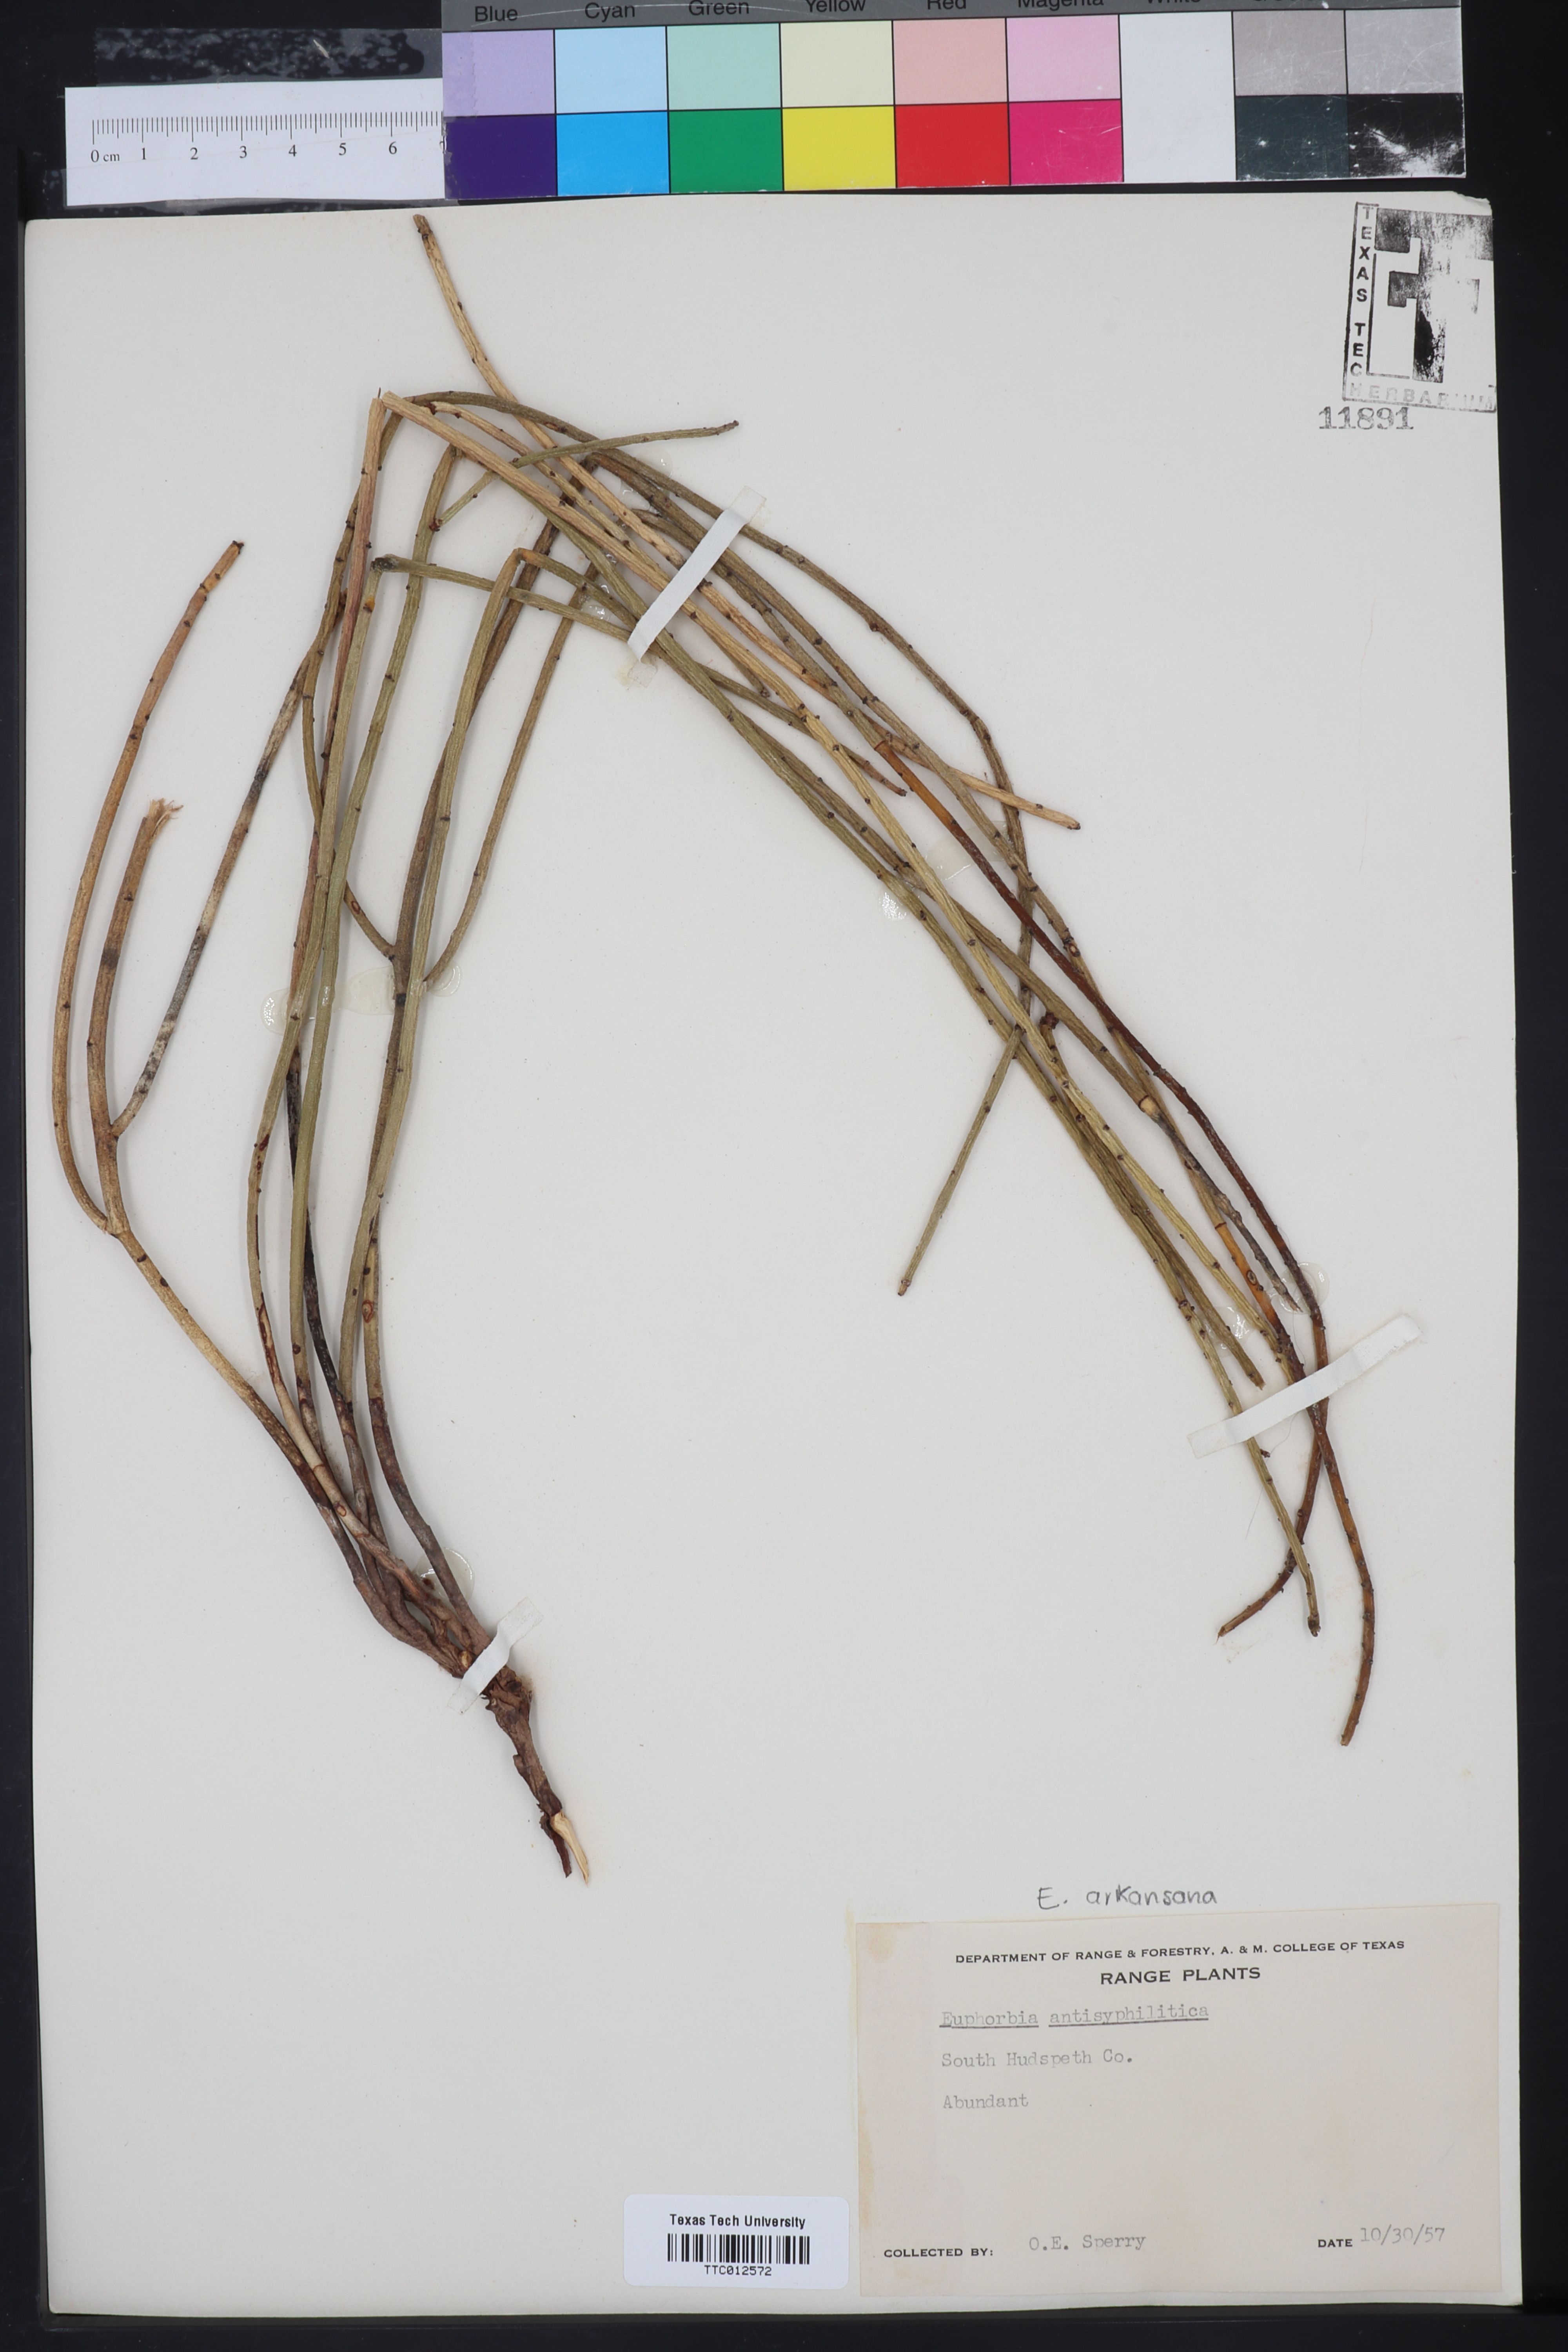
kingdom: Plantae
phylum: Tracheophyta
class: Magnoliopsida
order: Malpighiales
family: Euphorbiaceae
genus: Euphorbia
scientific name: Euphorbia antisyphilitica
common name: Candelilla
